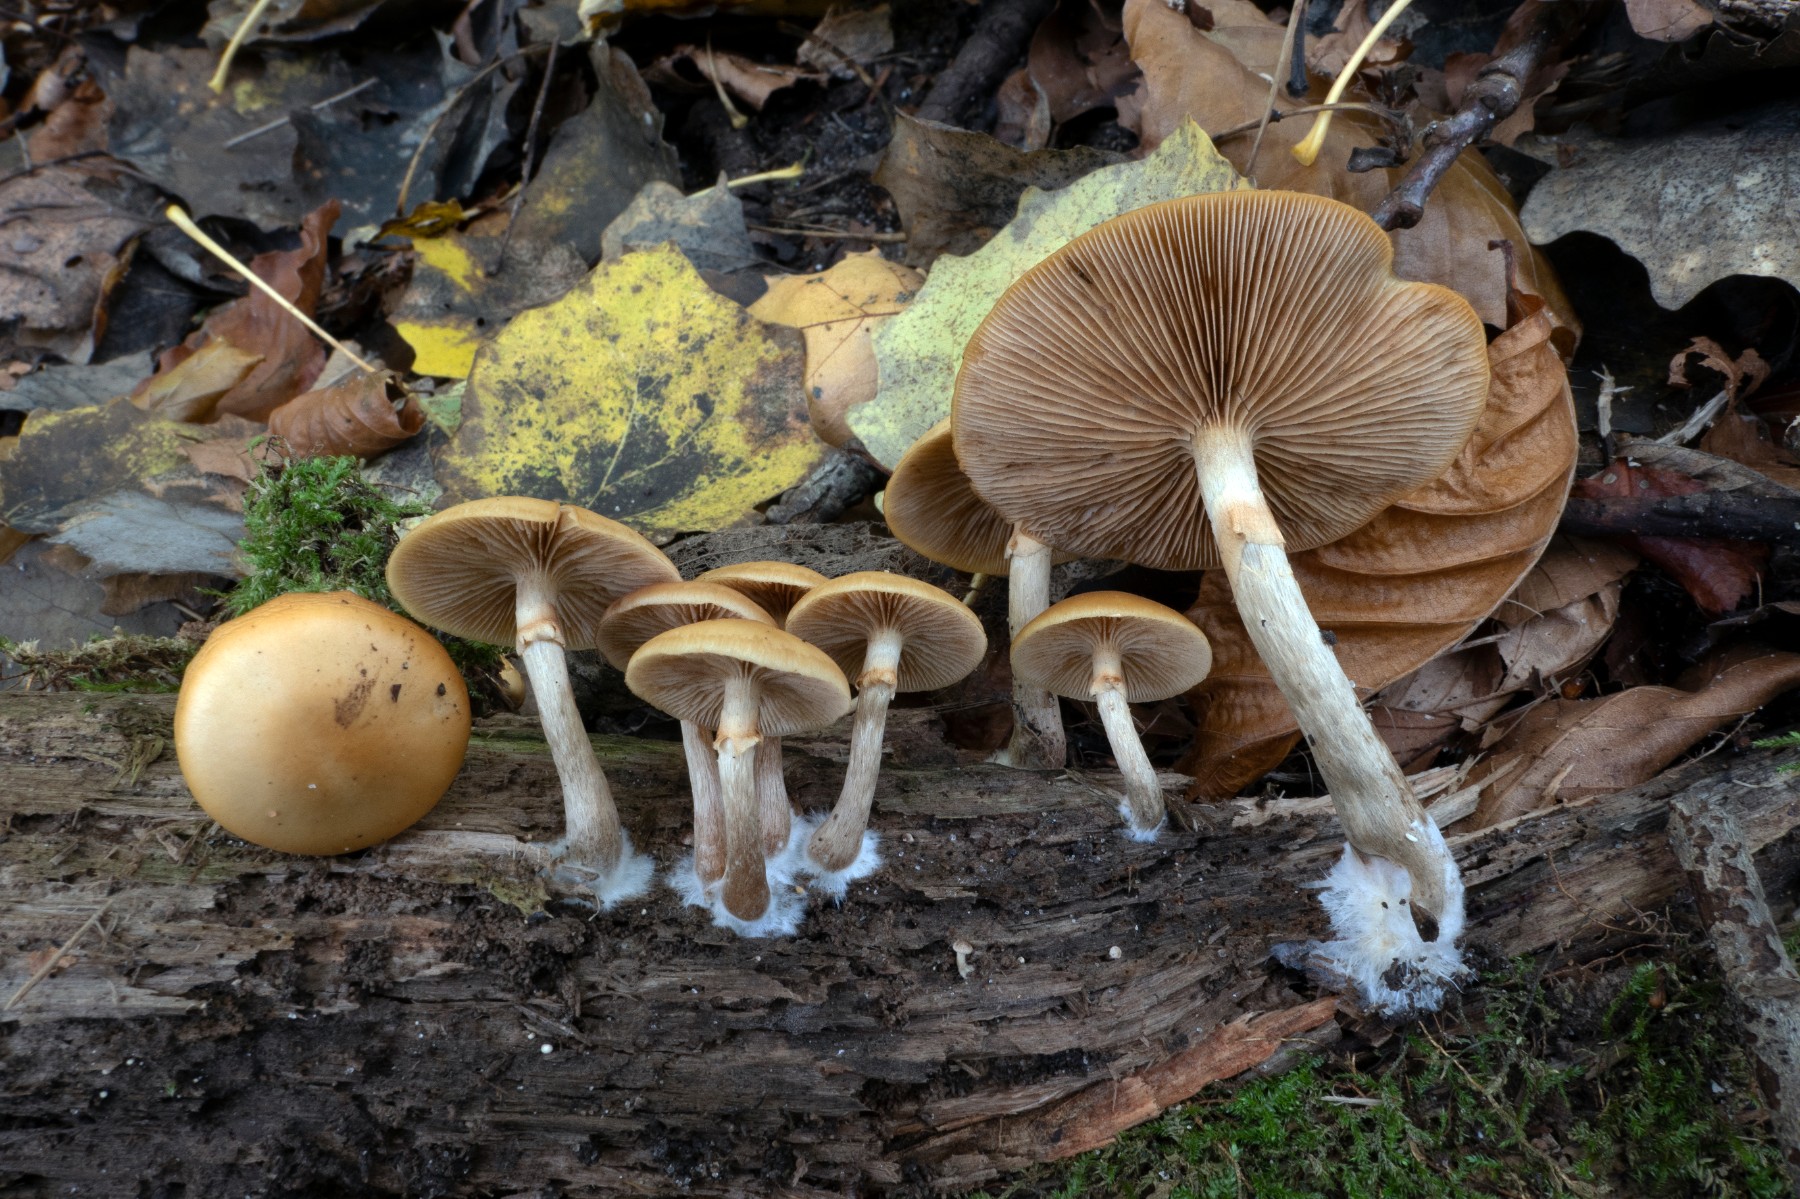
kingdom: Fungi
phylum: Basidiomycota
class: Agaricomycetes
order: Agaricales
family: Hymenogastraceae
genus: Galerina
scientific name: Galerina marginata
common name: randbæltet hjelmhat
